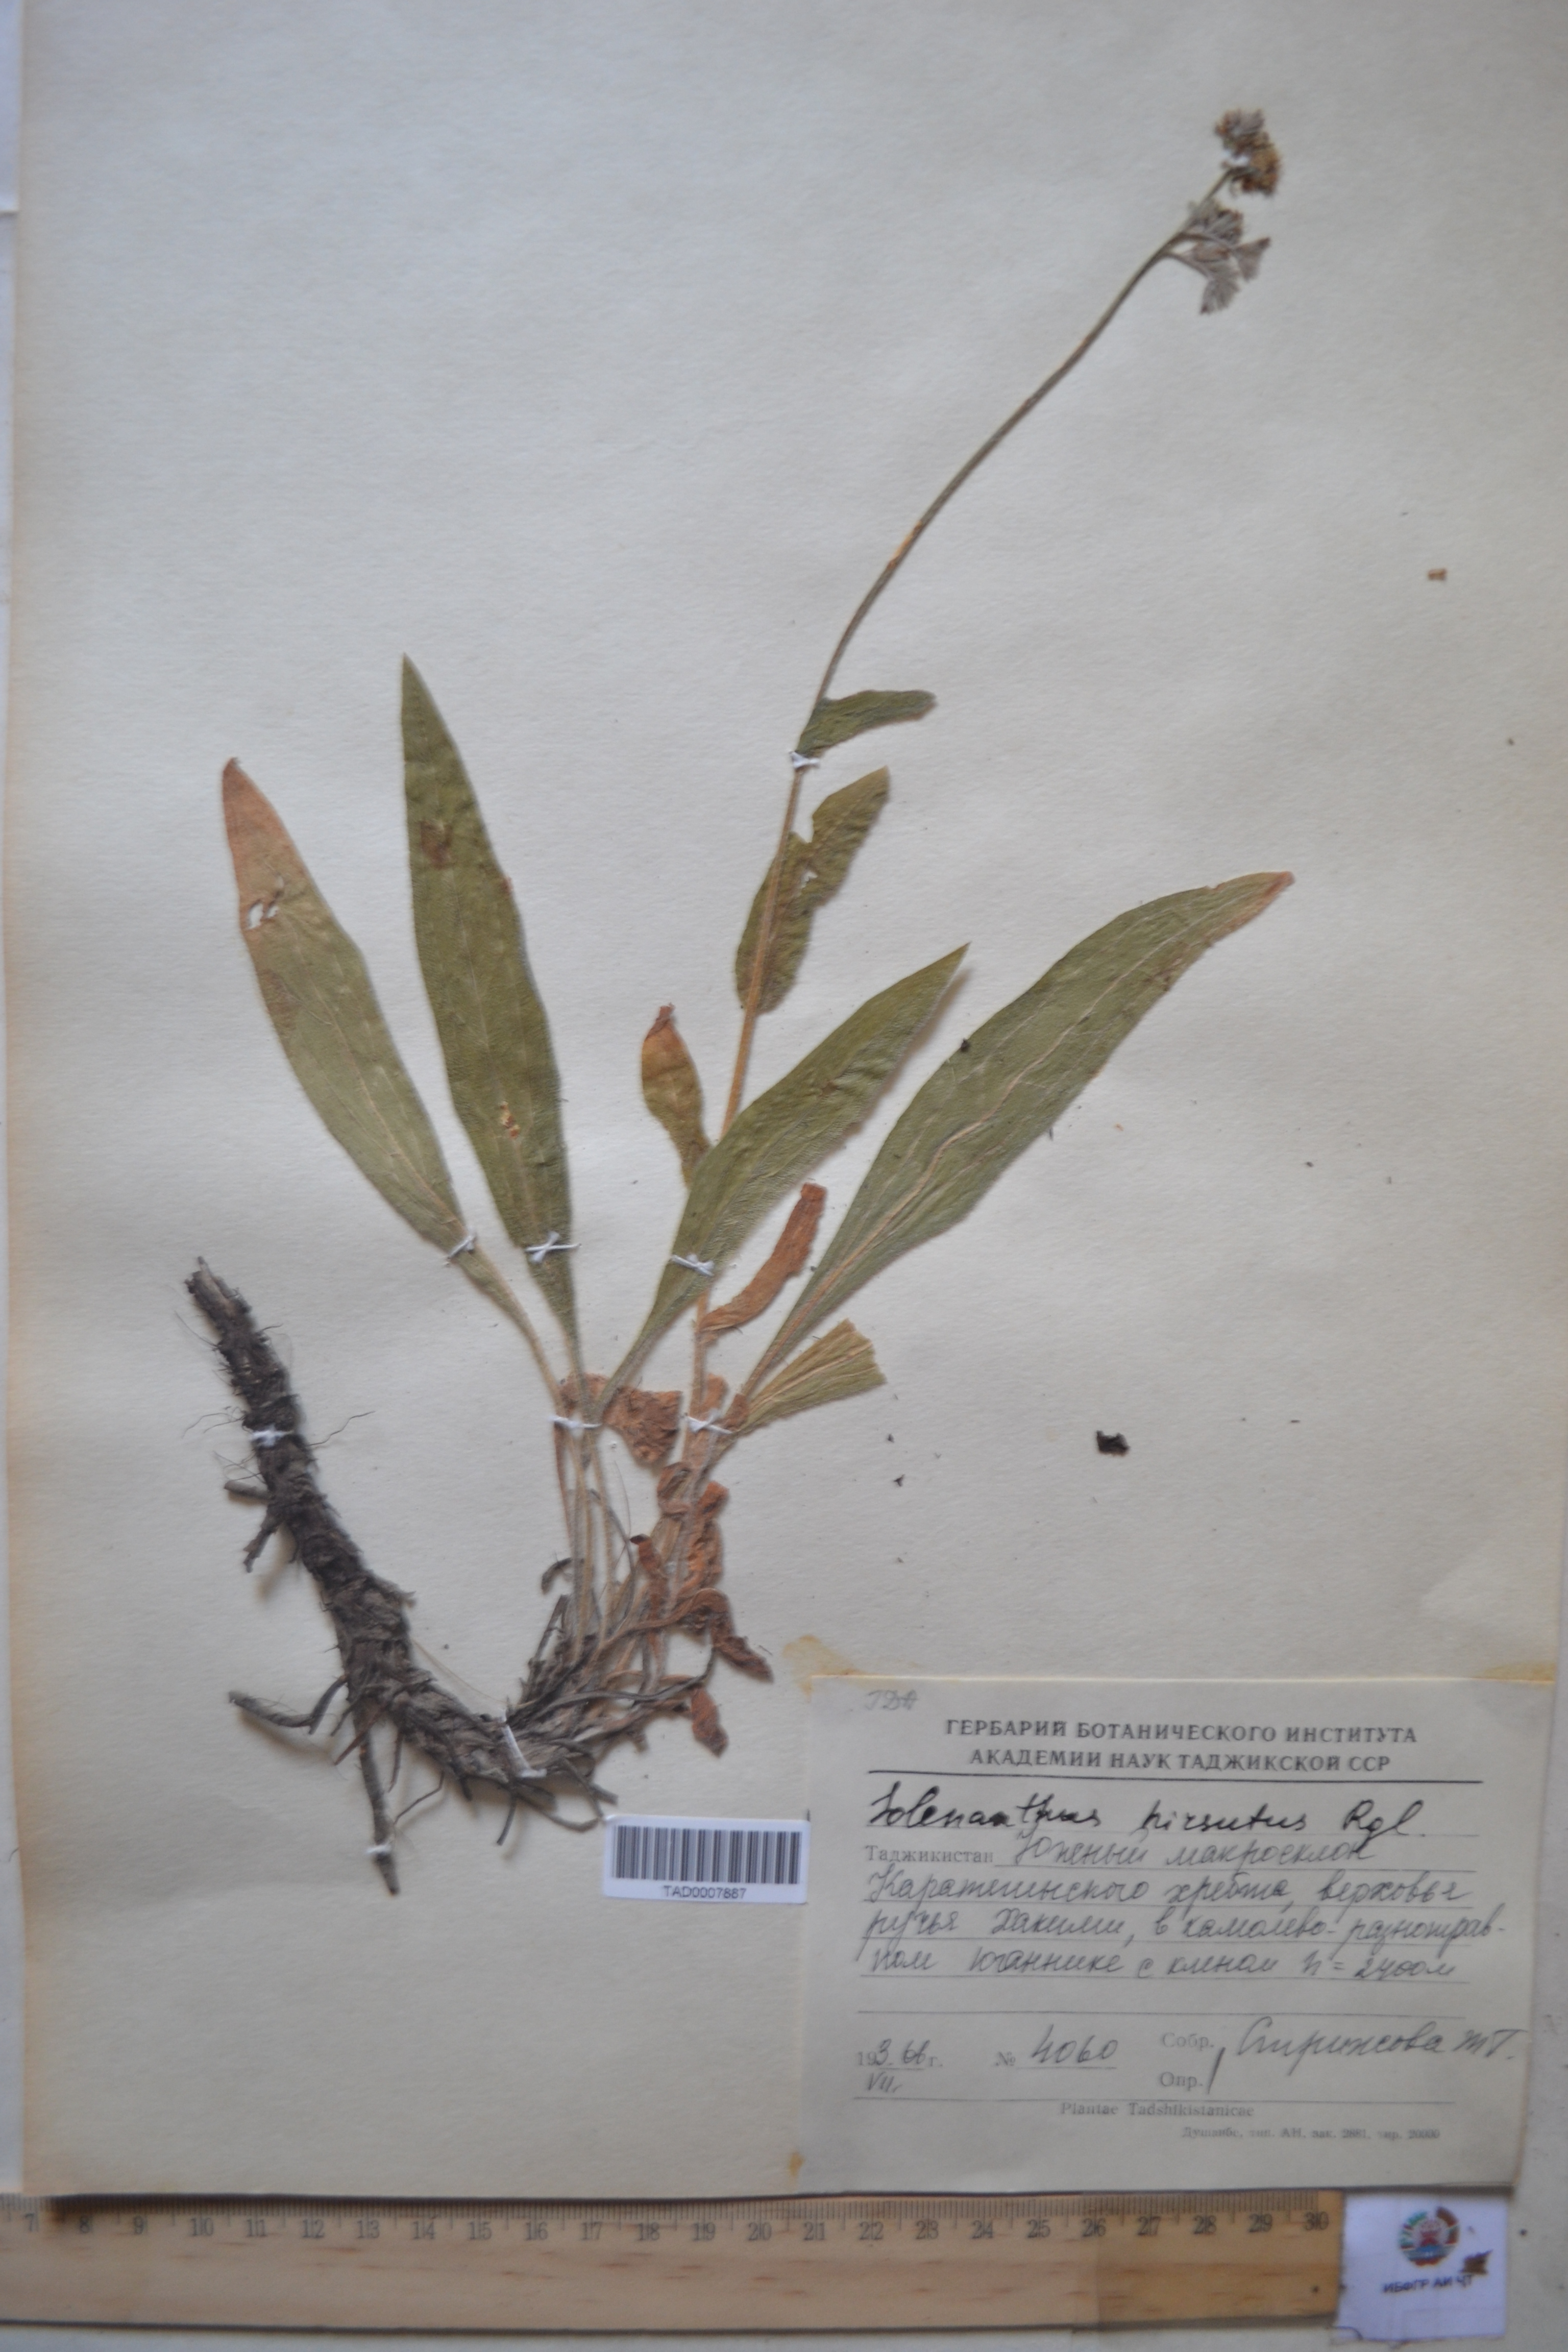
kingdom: Plantae
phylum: Tracheophyta
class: Magnoliopsida
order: Boraginales
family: Boraginaceae
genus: Solenanthus
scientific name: Solenanthus hirsutus
